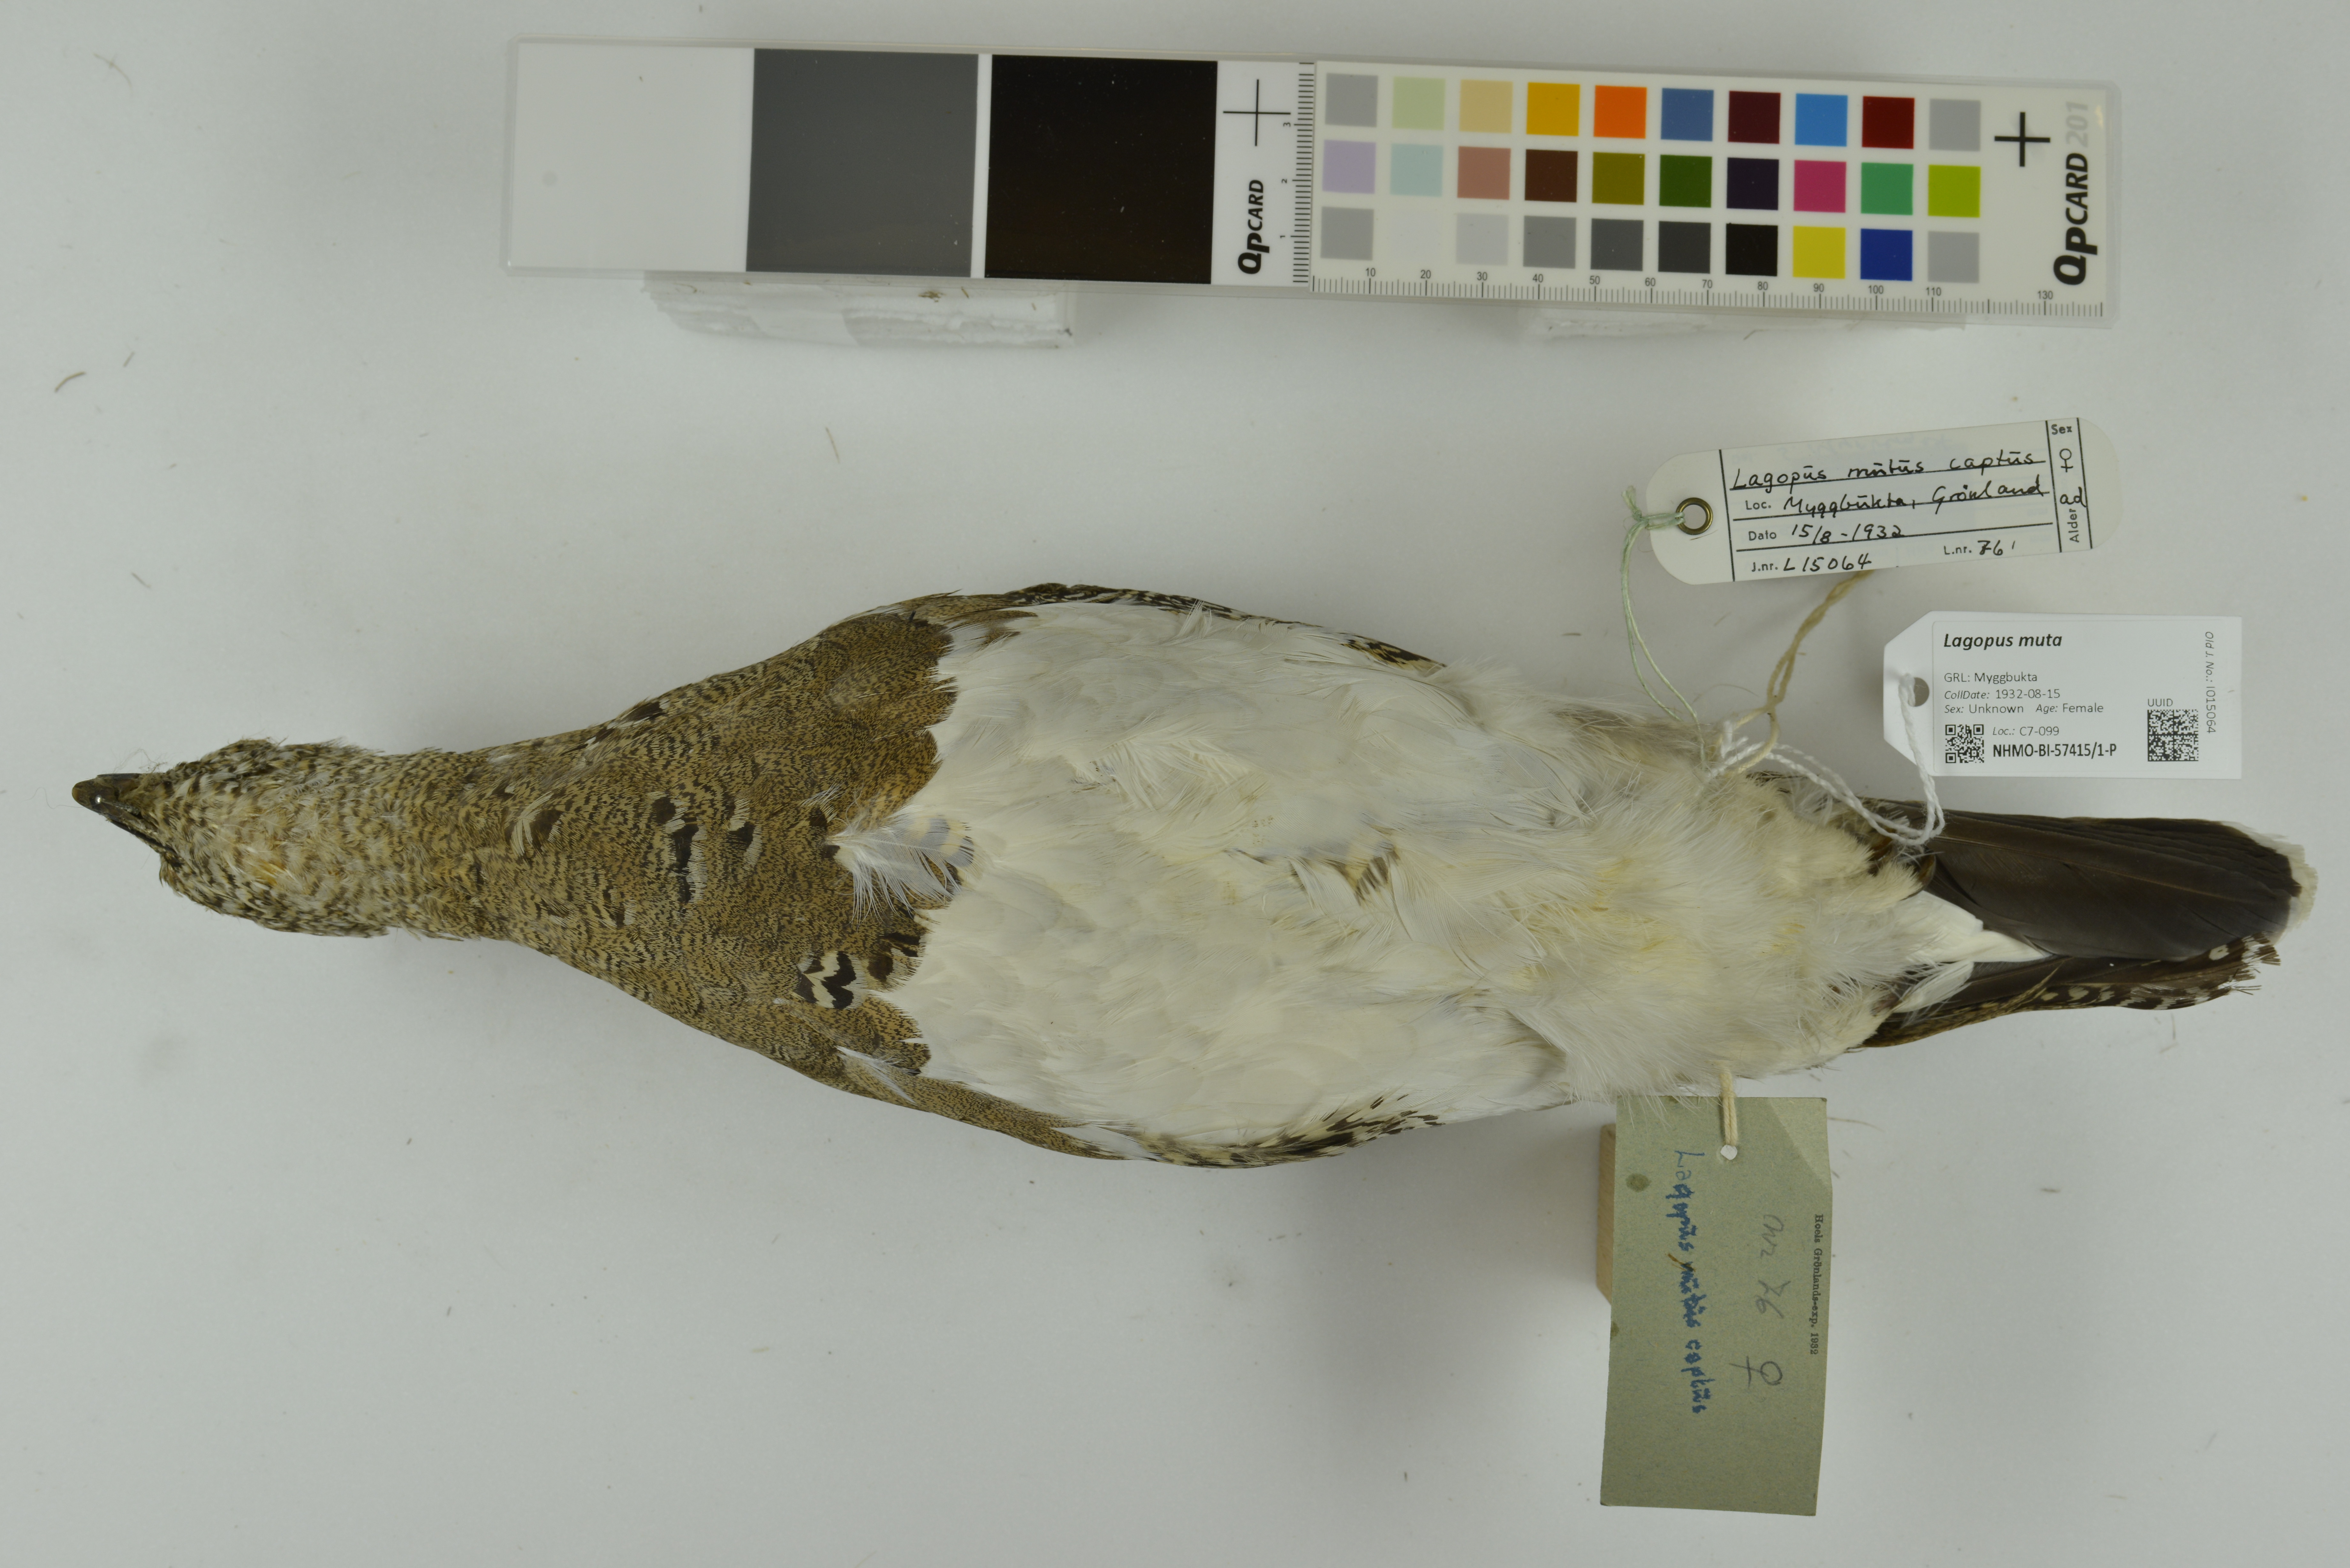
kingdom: Animalia
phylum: Chordata
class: Aves
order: Galliformes
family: Phasianidae
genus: Lagopus
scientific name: Lagopus muta
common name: Rock ptarmigan
